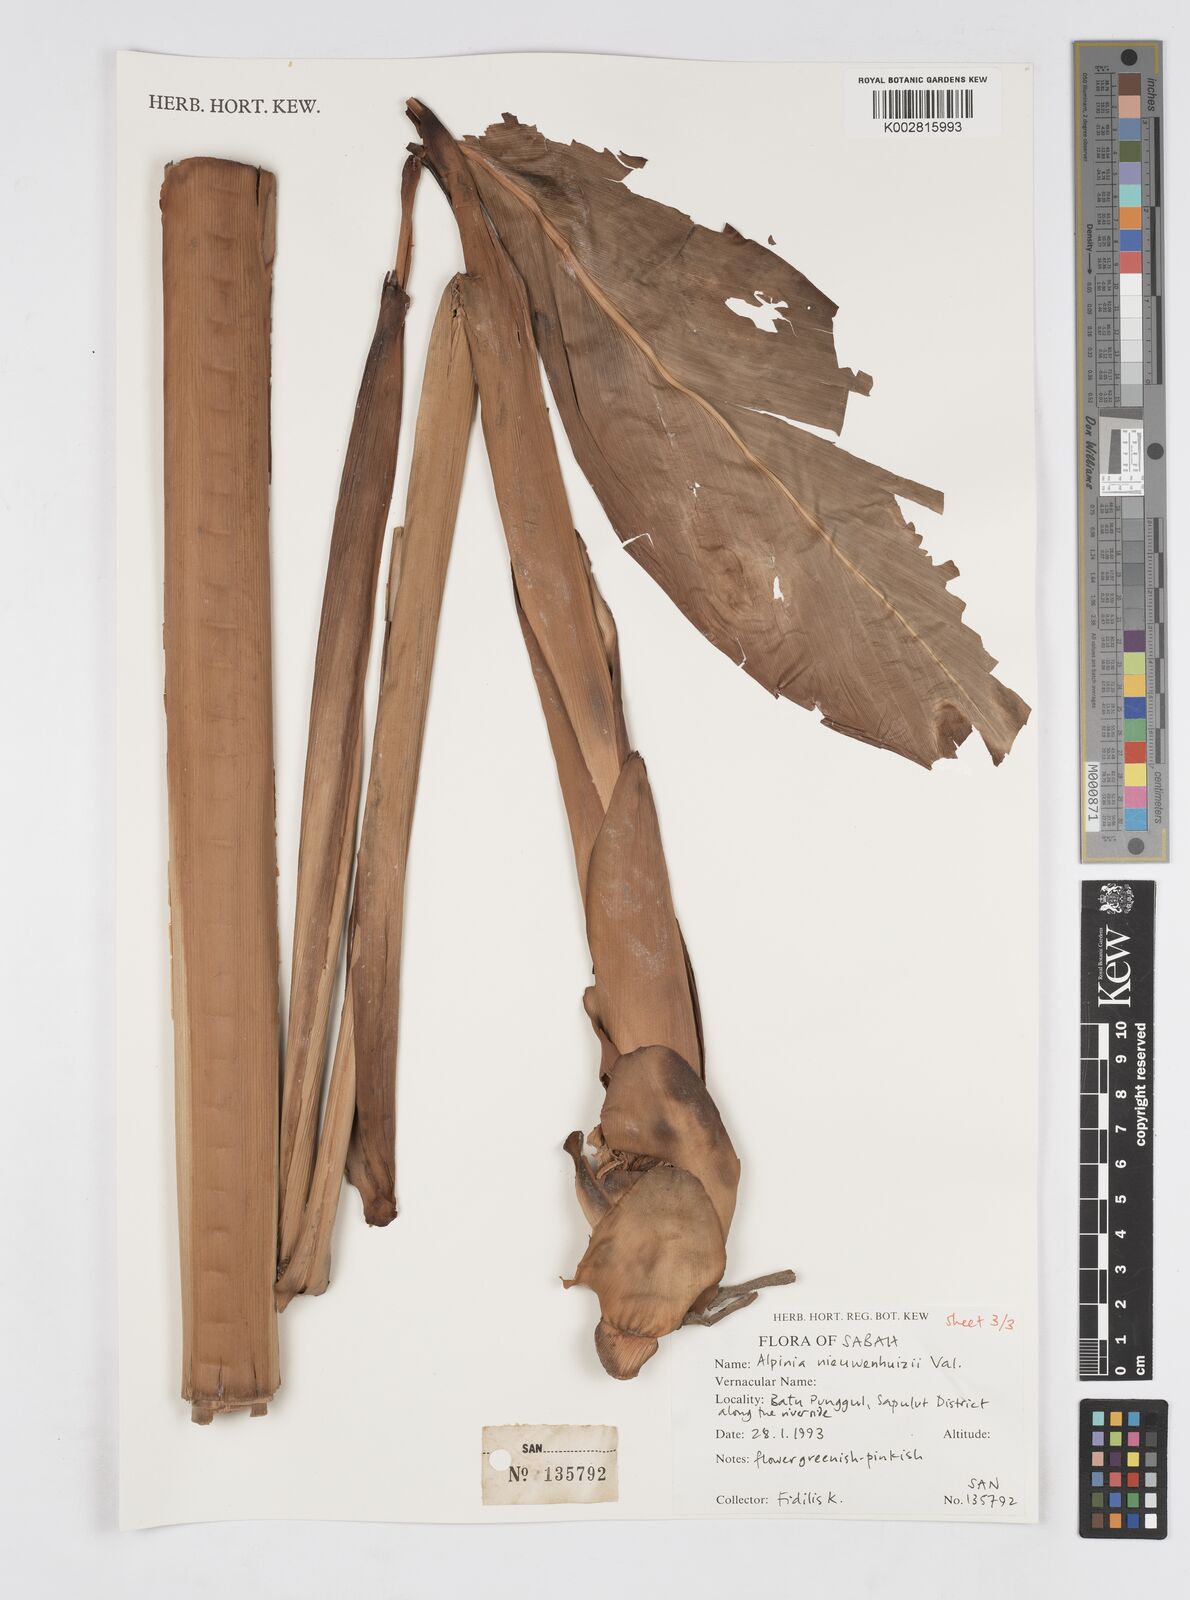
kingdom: Plantae
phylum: Tracheophyta
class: Liliopsida
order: Zingiberales
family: Zingiberaceae
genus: Alpinia
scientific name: Alpinia nieuwenhuizii
